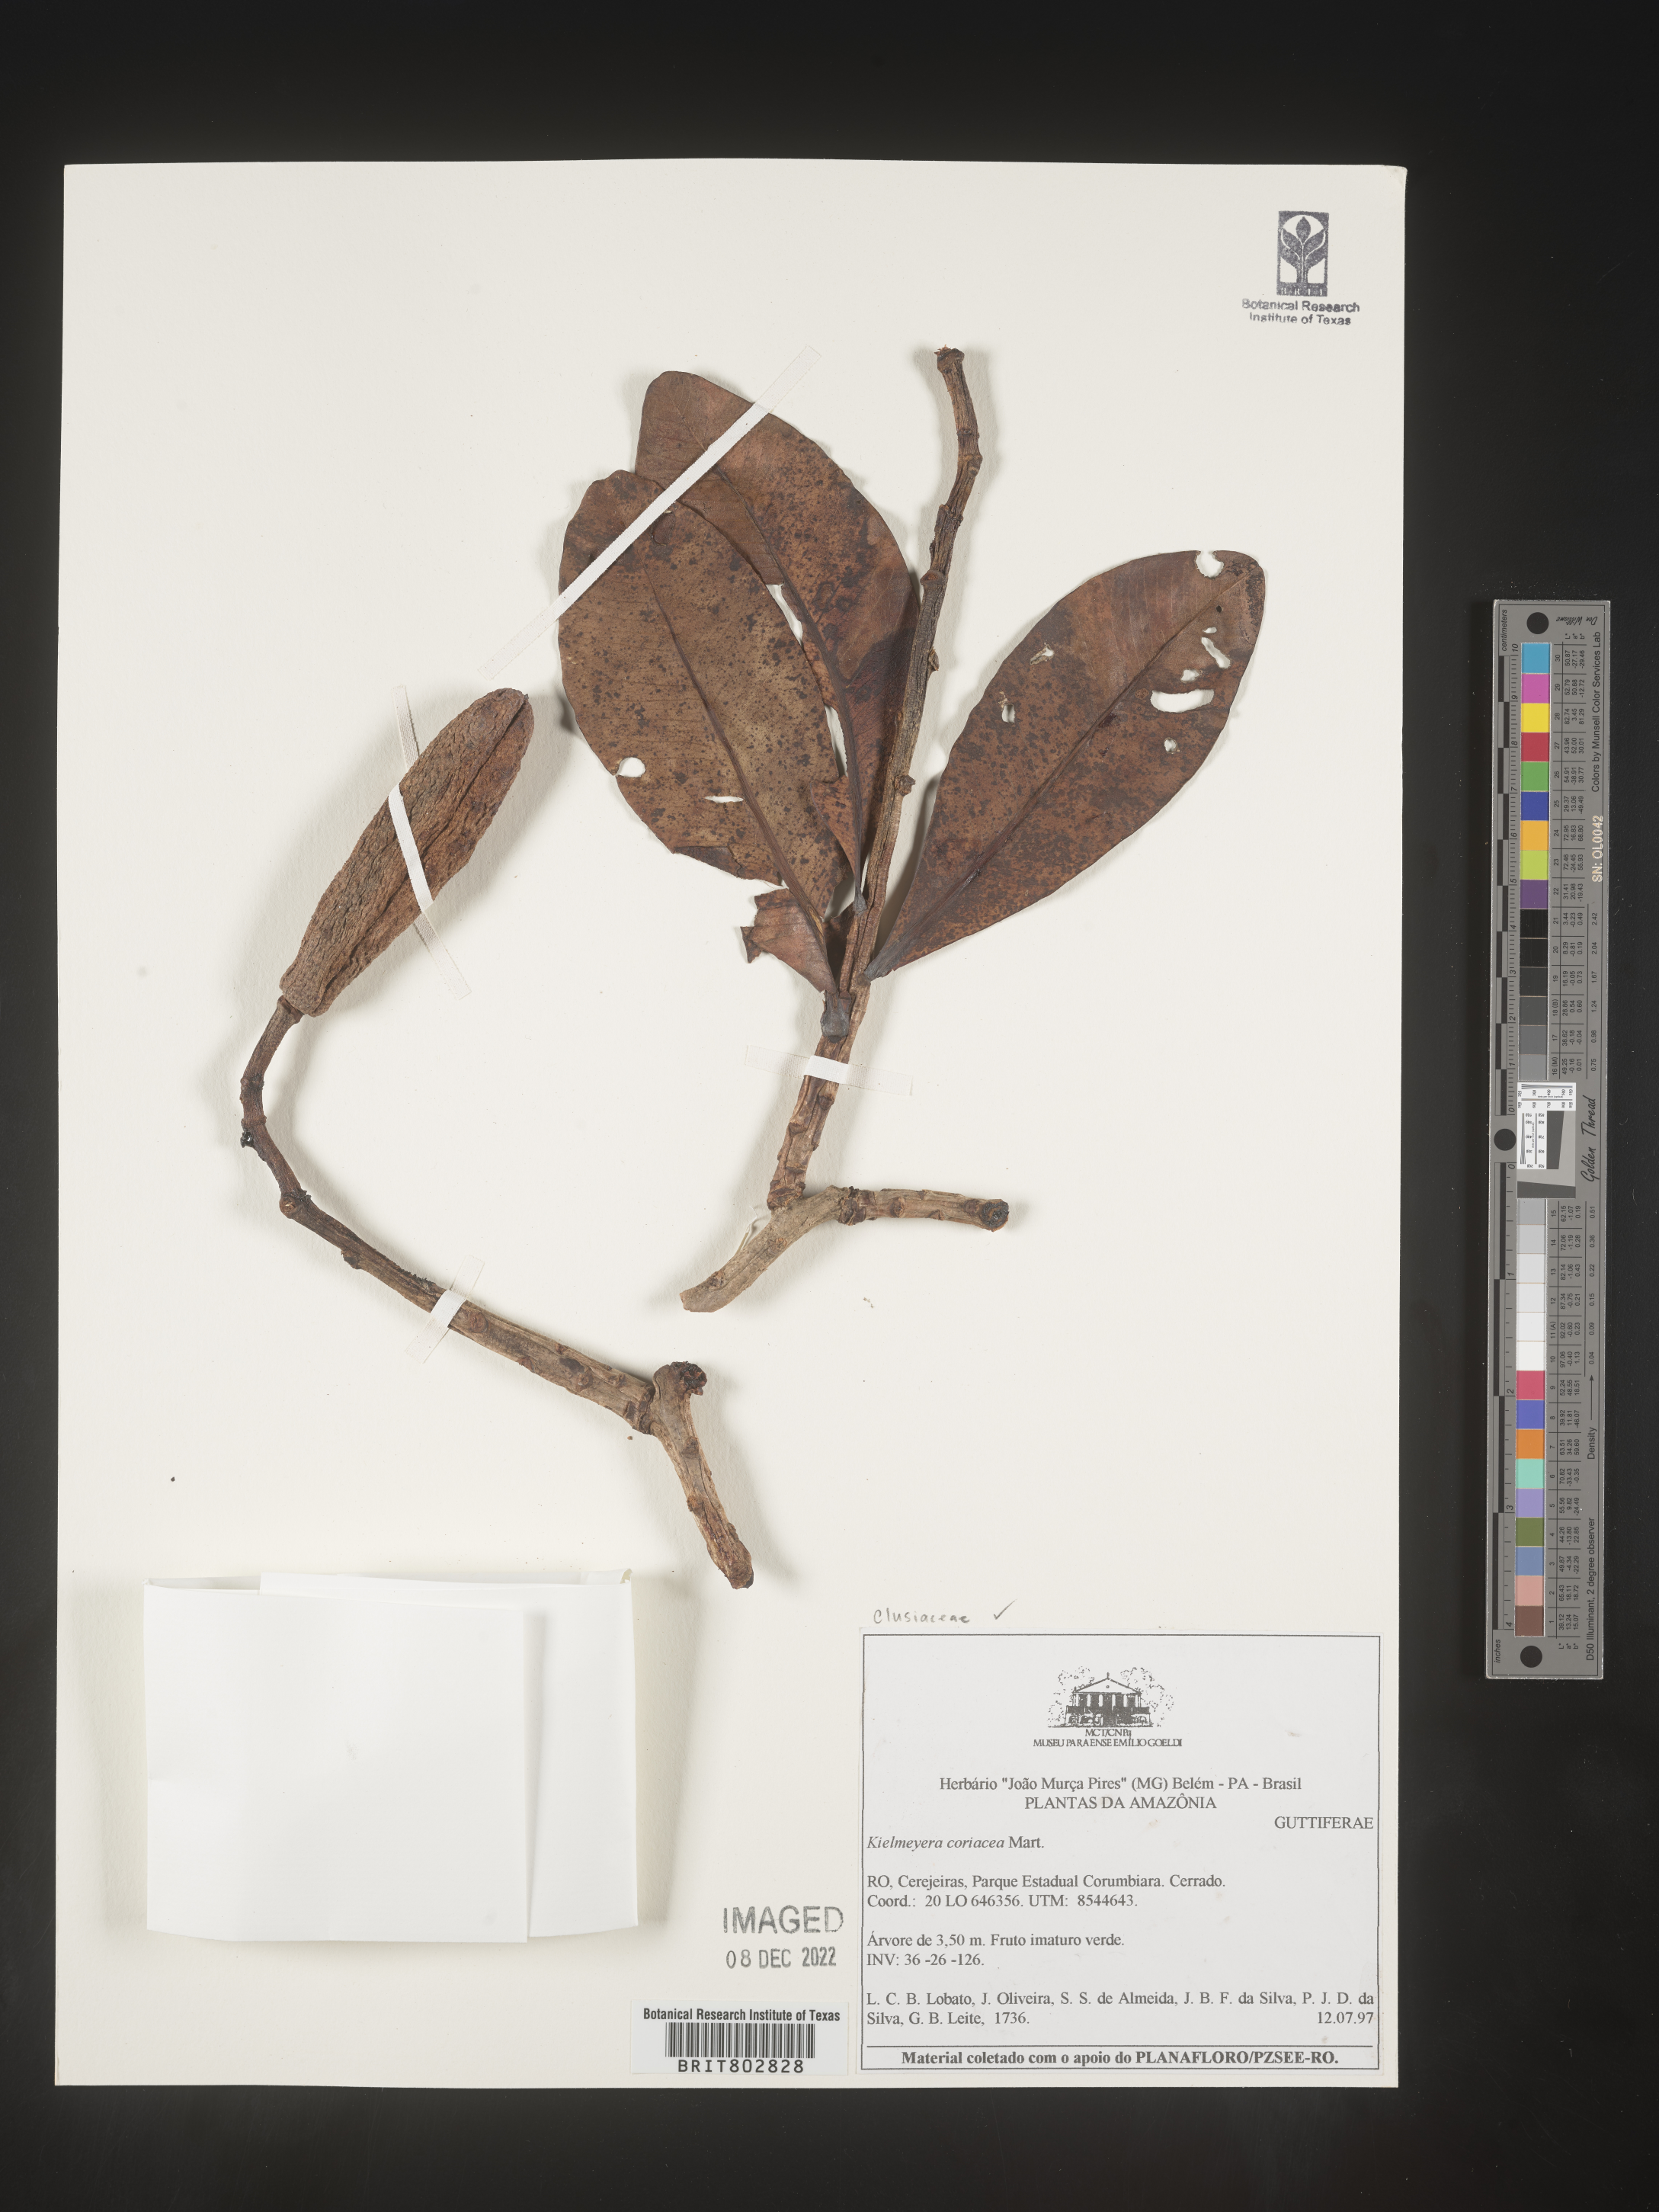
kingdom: Plantae
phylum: Tracheophyta
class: Magnoliopsida
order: Malpighiales
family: Calophyllaceae
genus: Kielmeyera
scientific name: Kielmeyera
